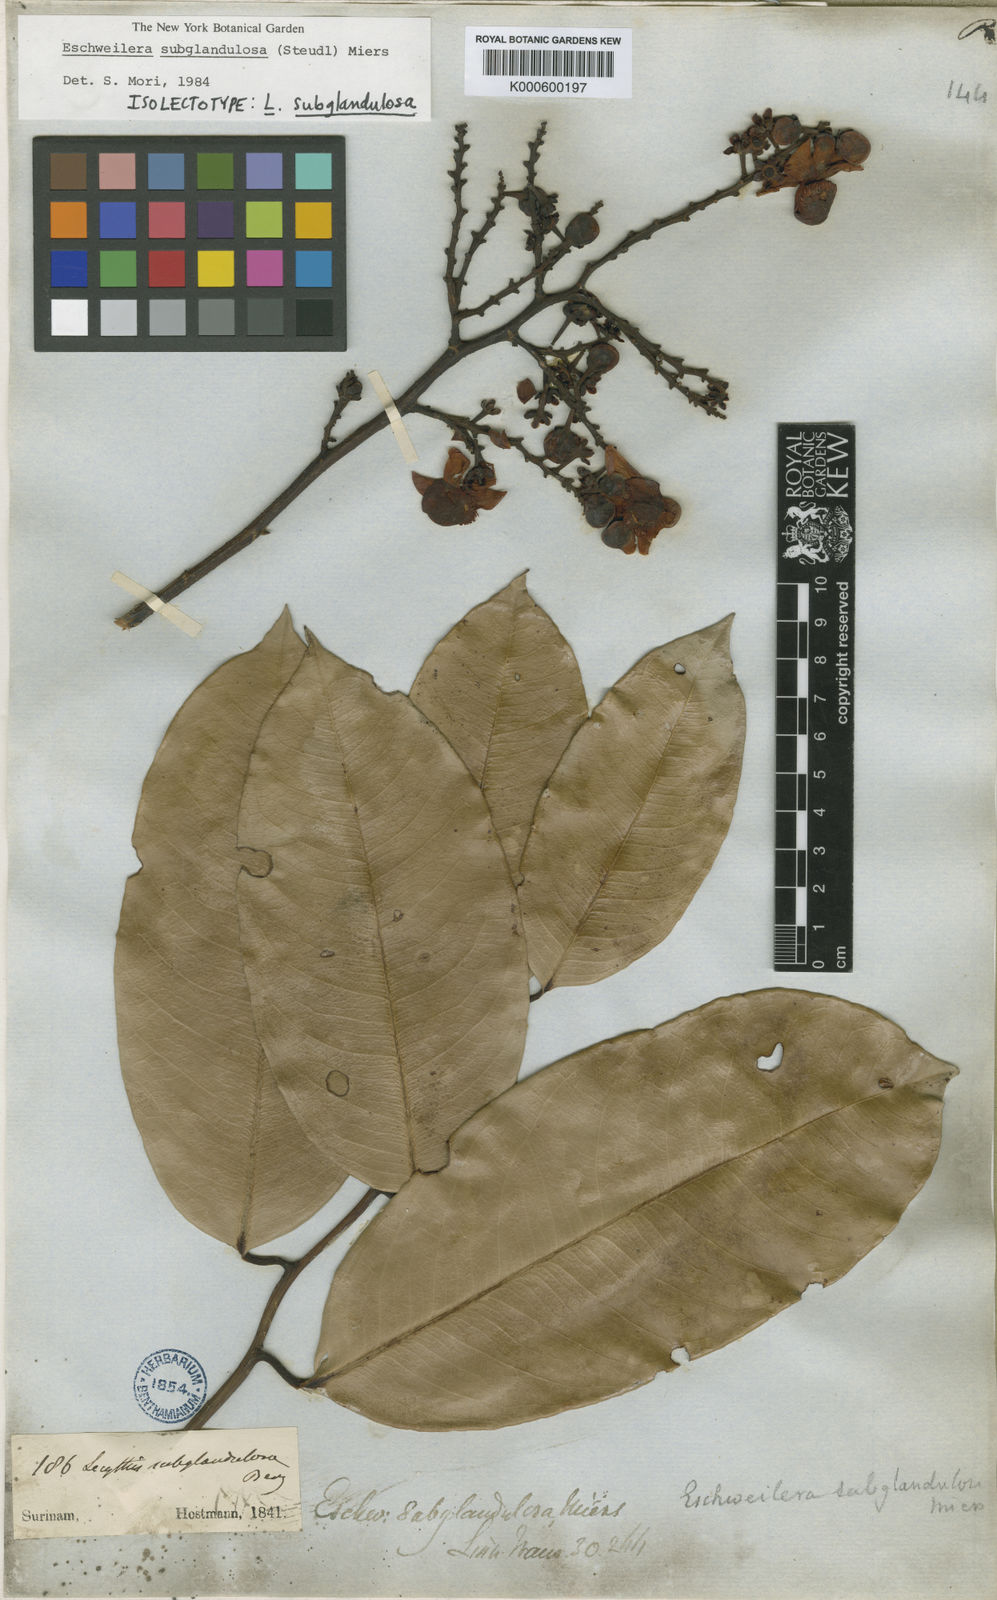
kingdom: Plantae
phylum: Tracheophyta
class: Magnoliopsida
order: Ericales
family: Lecythidaceae
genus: Eschweilera
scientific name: Eschweilera subglandulosa
